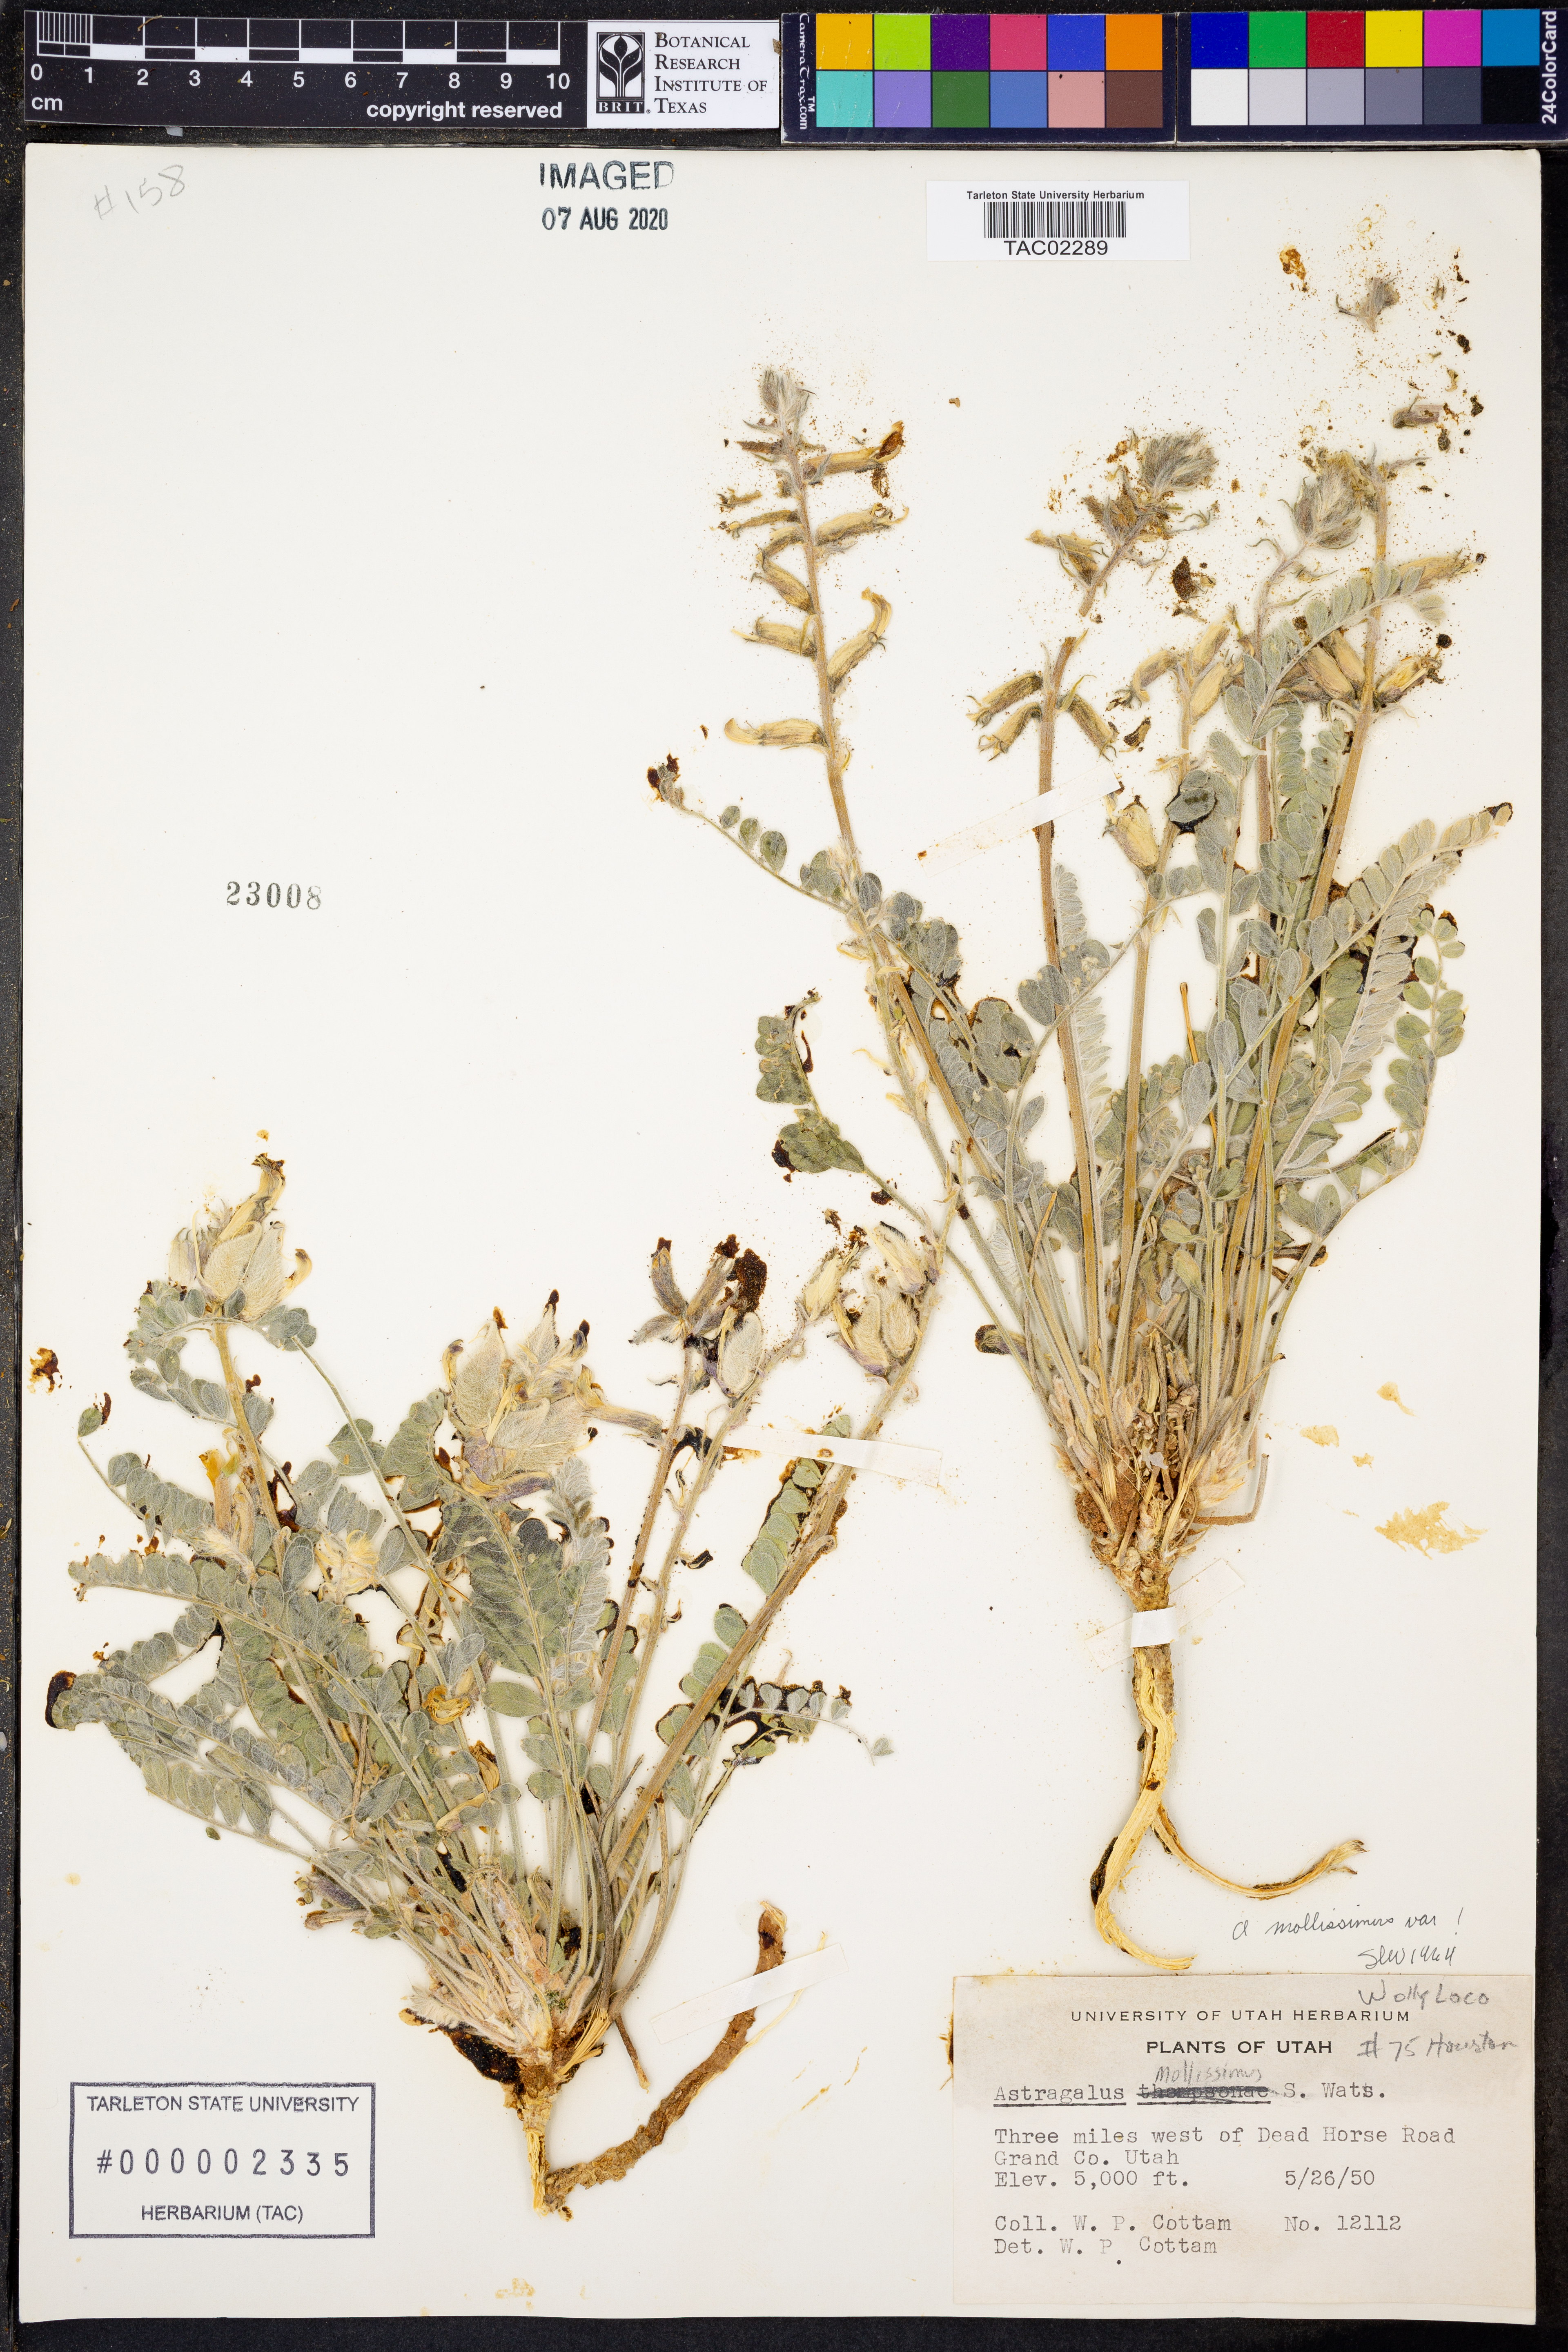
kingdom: Plantae
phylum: Tracheophyta
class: Magnoliopsida
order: Fabales
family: Fabaceae
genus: Astragalus
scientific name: Astragalus mollissimus
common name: Woolly locoweed
